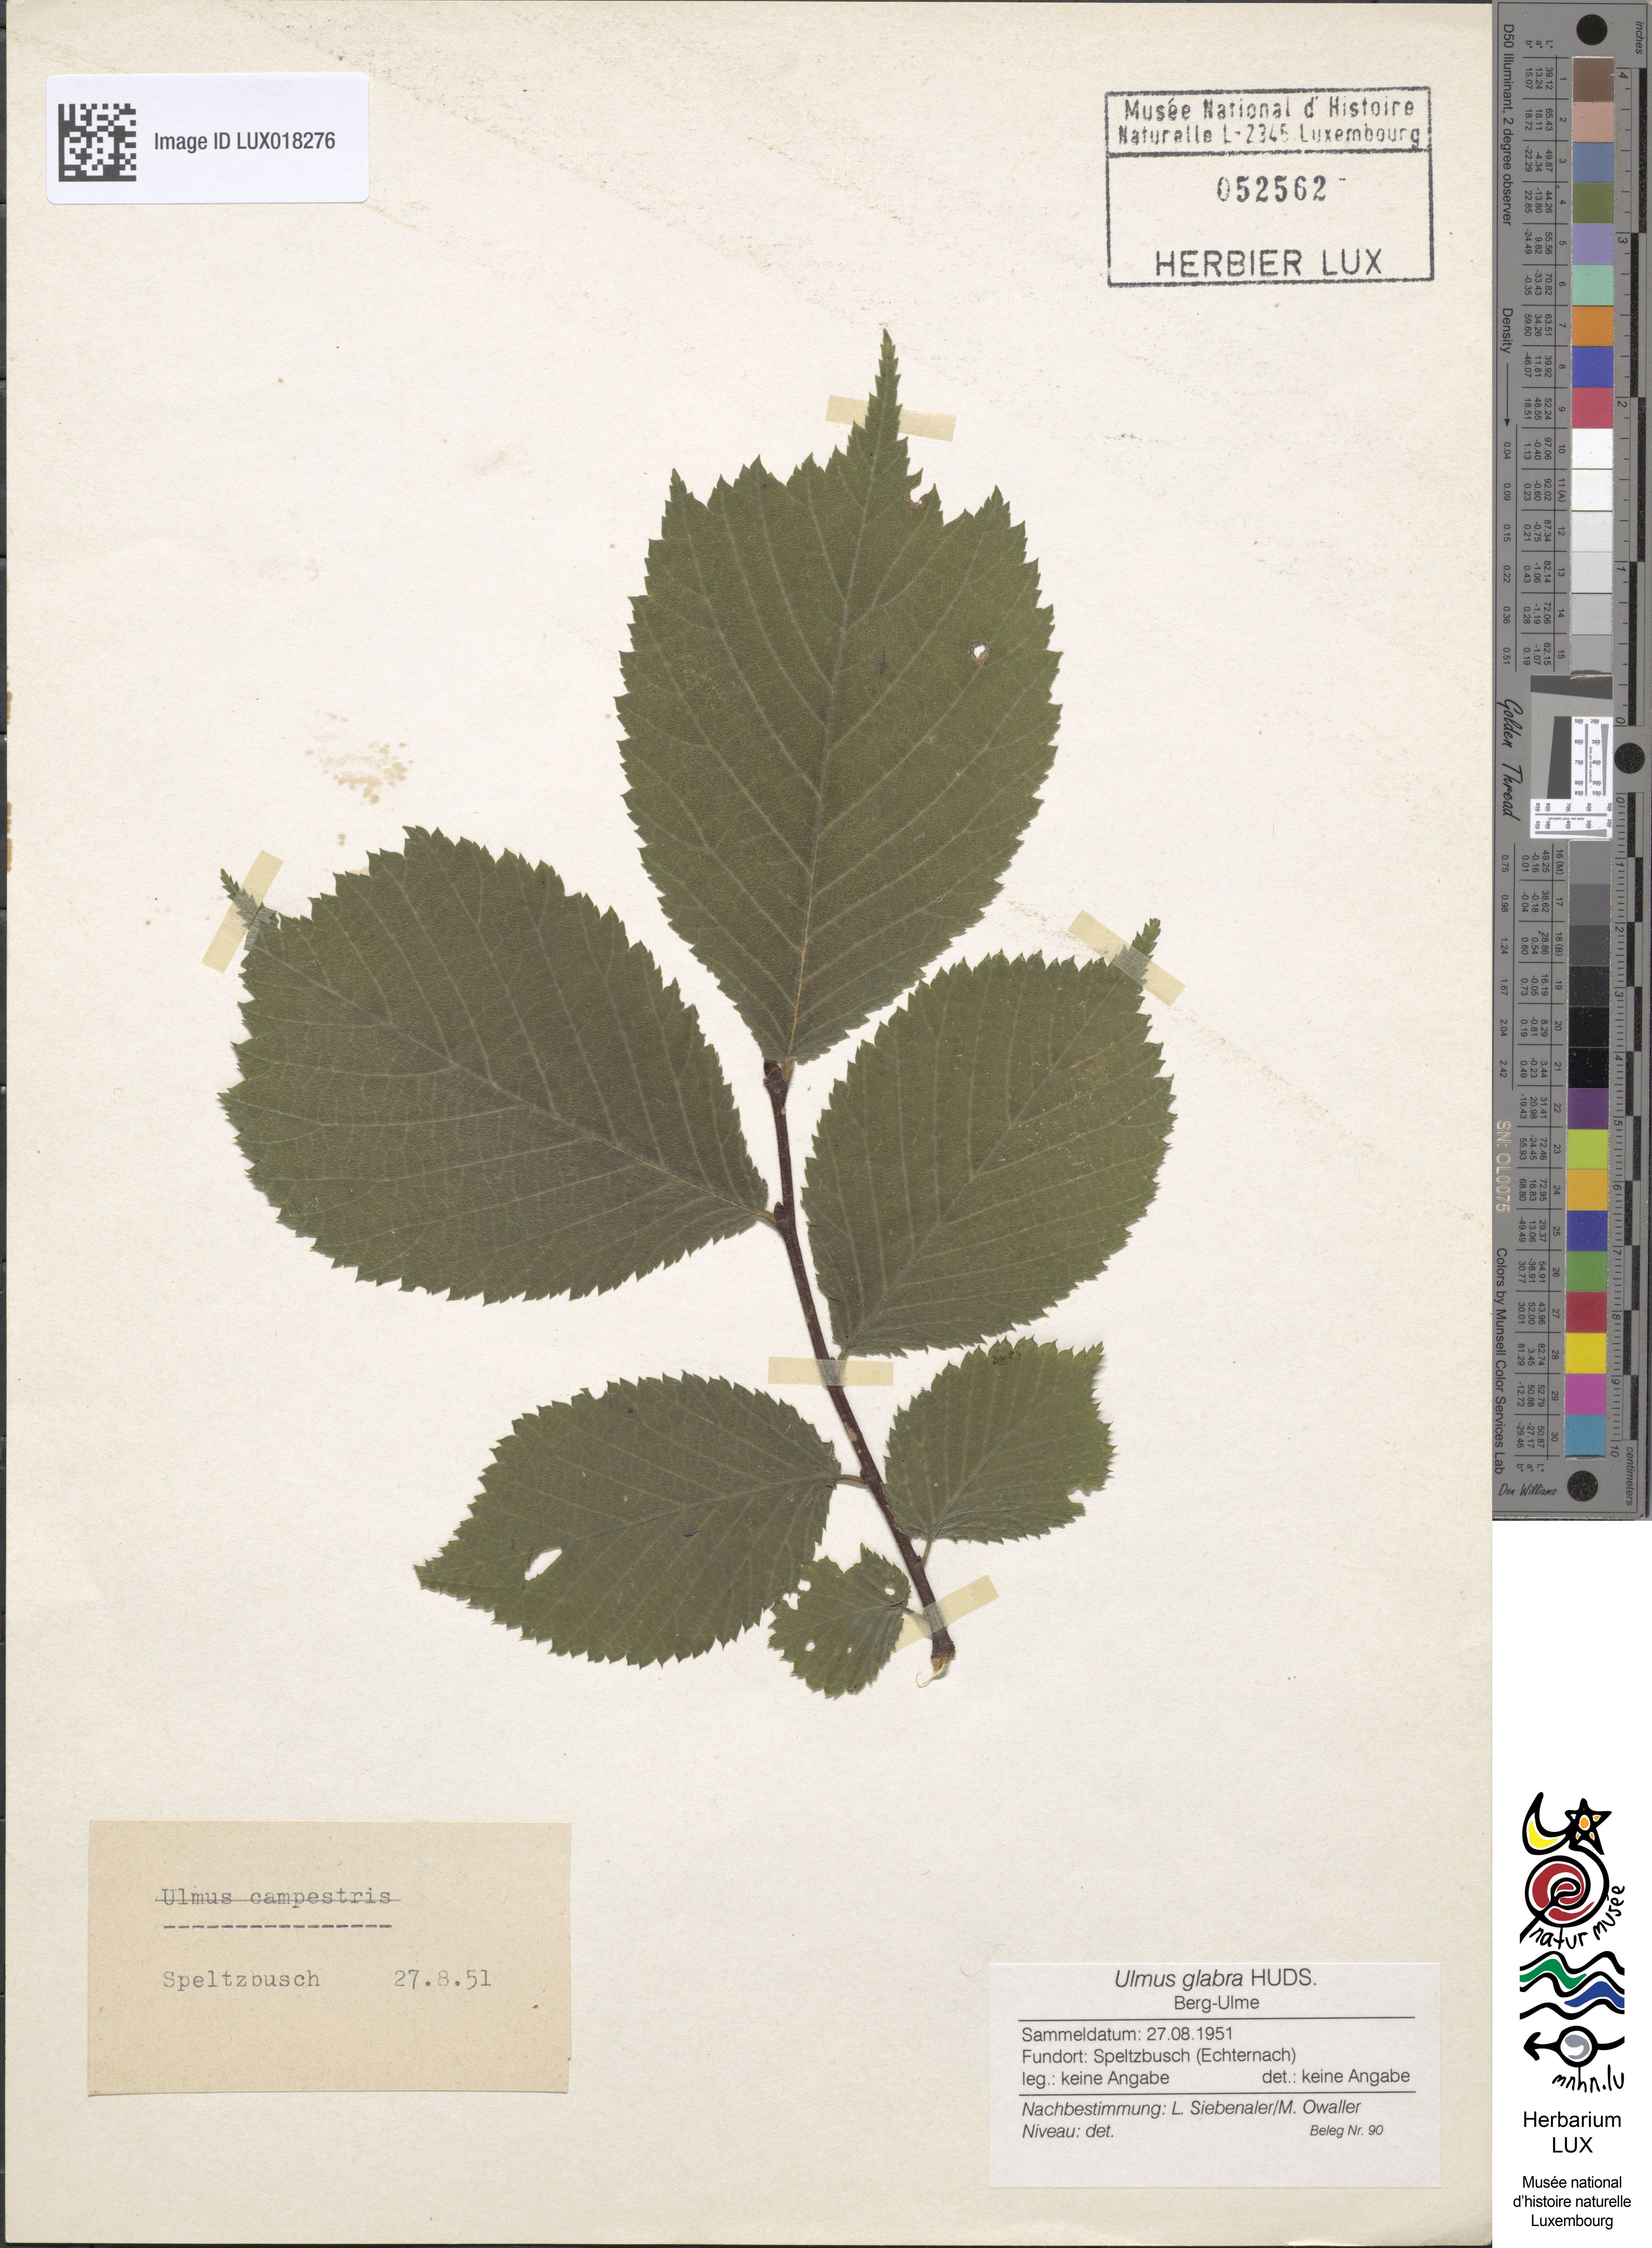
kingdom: Plantae
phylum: Tracheophyta
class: Magnoliopsida
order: Rosales
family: Ulmaceae
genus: Ulmus
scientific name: Ulmus glabra
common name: Wych elm
